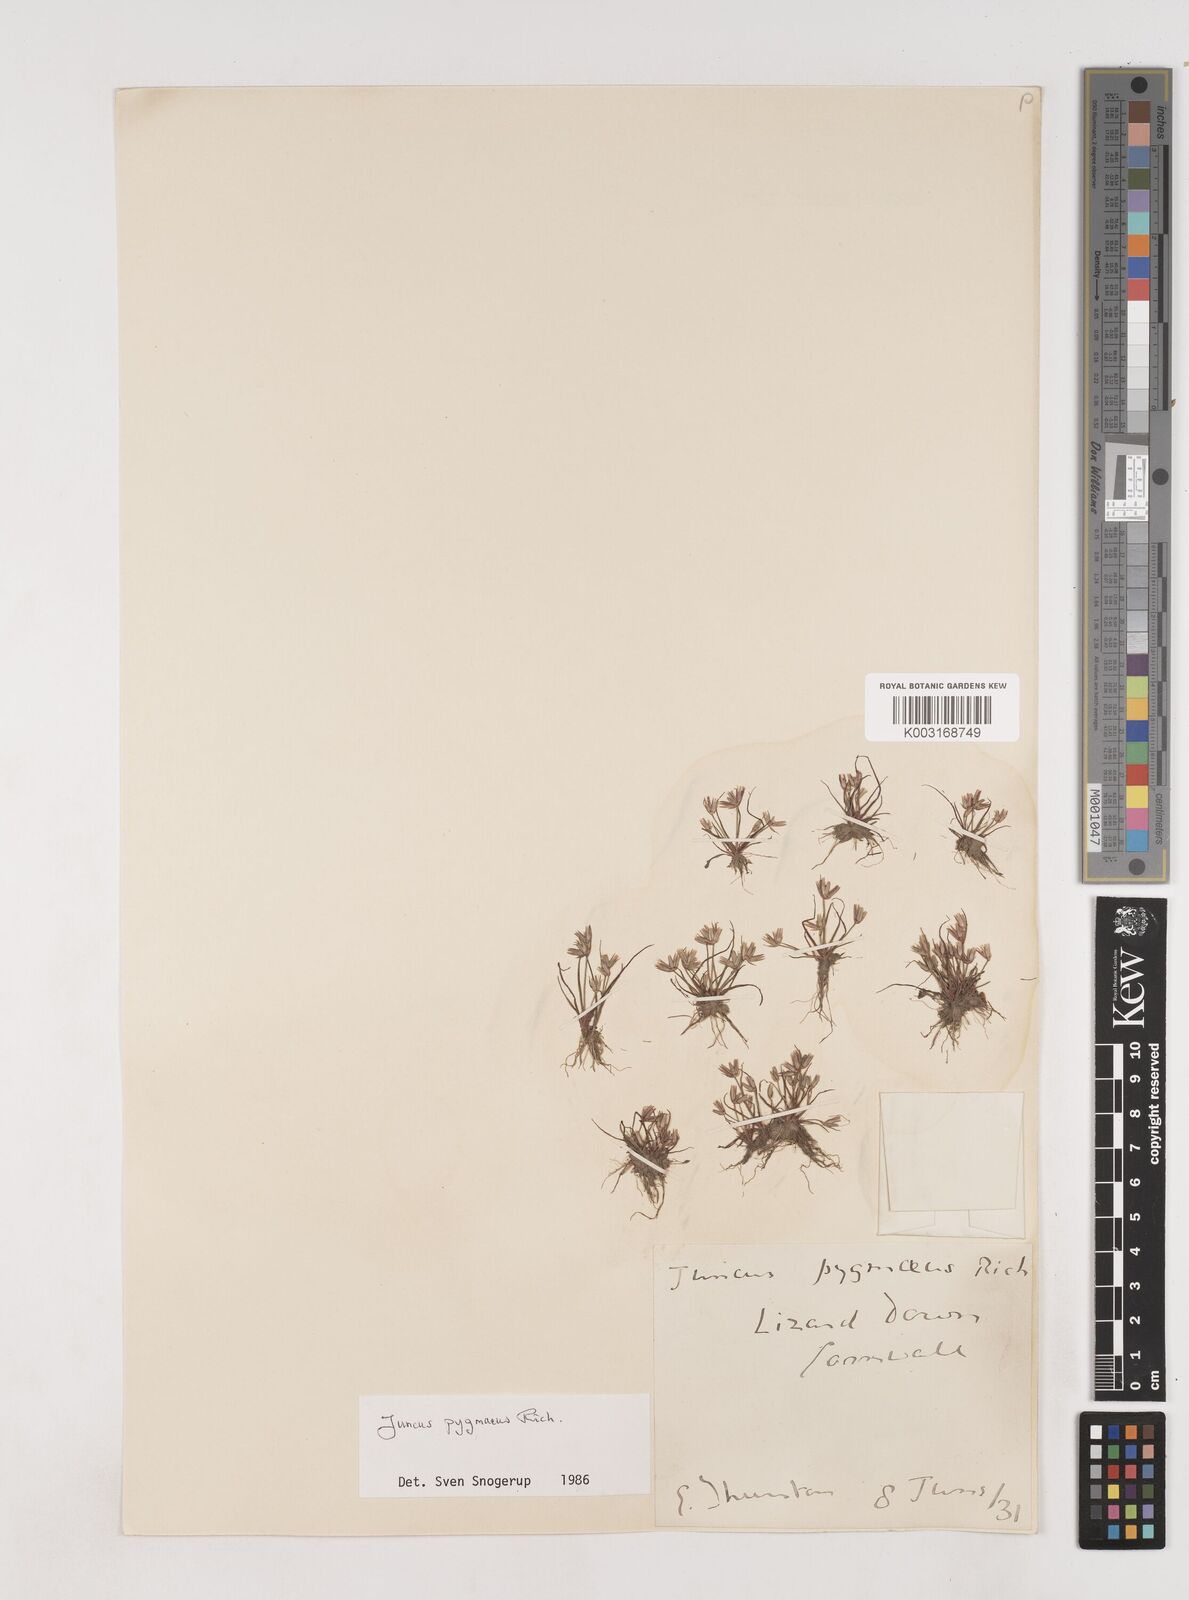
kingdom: Plantae
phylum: Tracheophyta
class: Liliopsida
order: Poales
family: Juncaceae
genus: Juncus
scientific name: Juncus pygmaeus
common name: Pigmy rush
